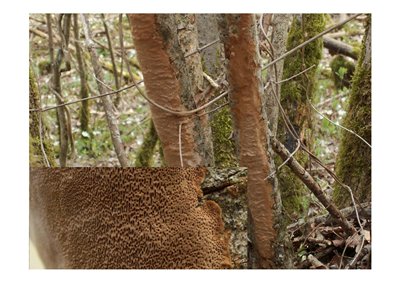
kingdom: Fungi
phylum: Basidiomycota
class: Agaricomycetes
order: Hymenochaetales
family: Hymenochaetaceae
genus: Fuscoporia
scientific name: Fuscoporia ferrea
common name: skorpe-ildporesvamp
